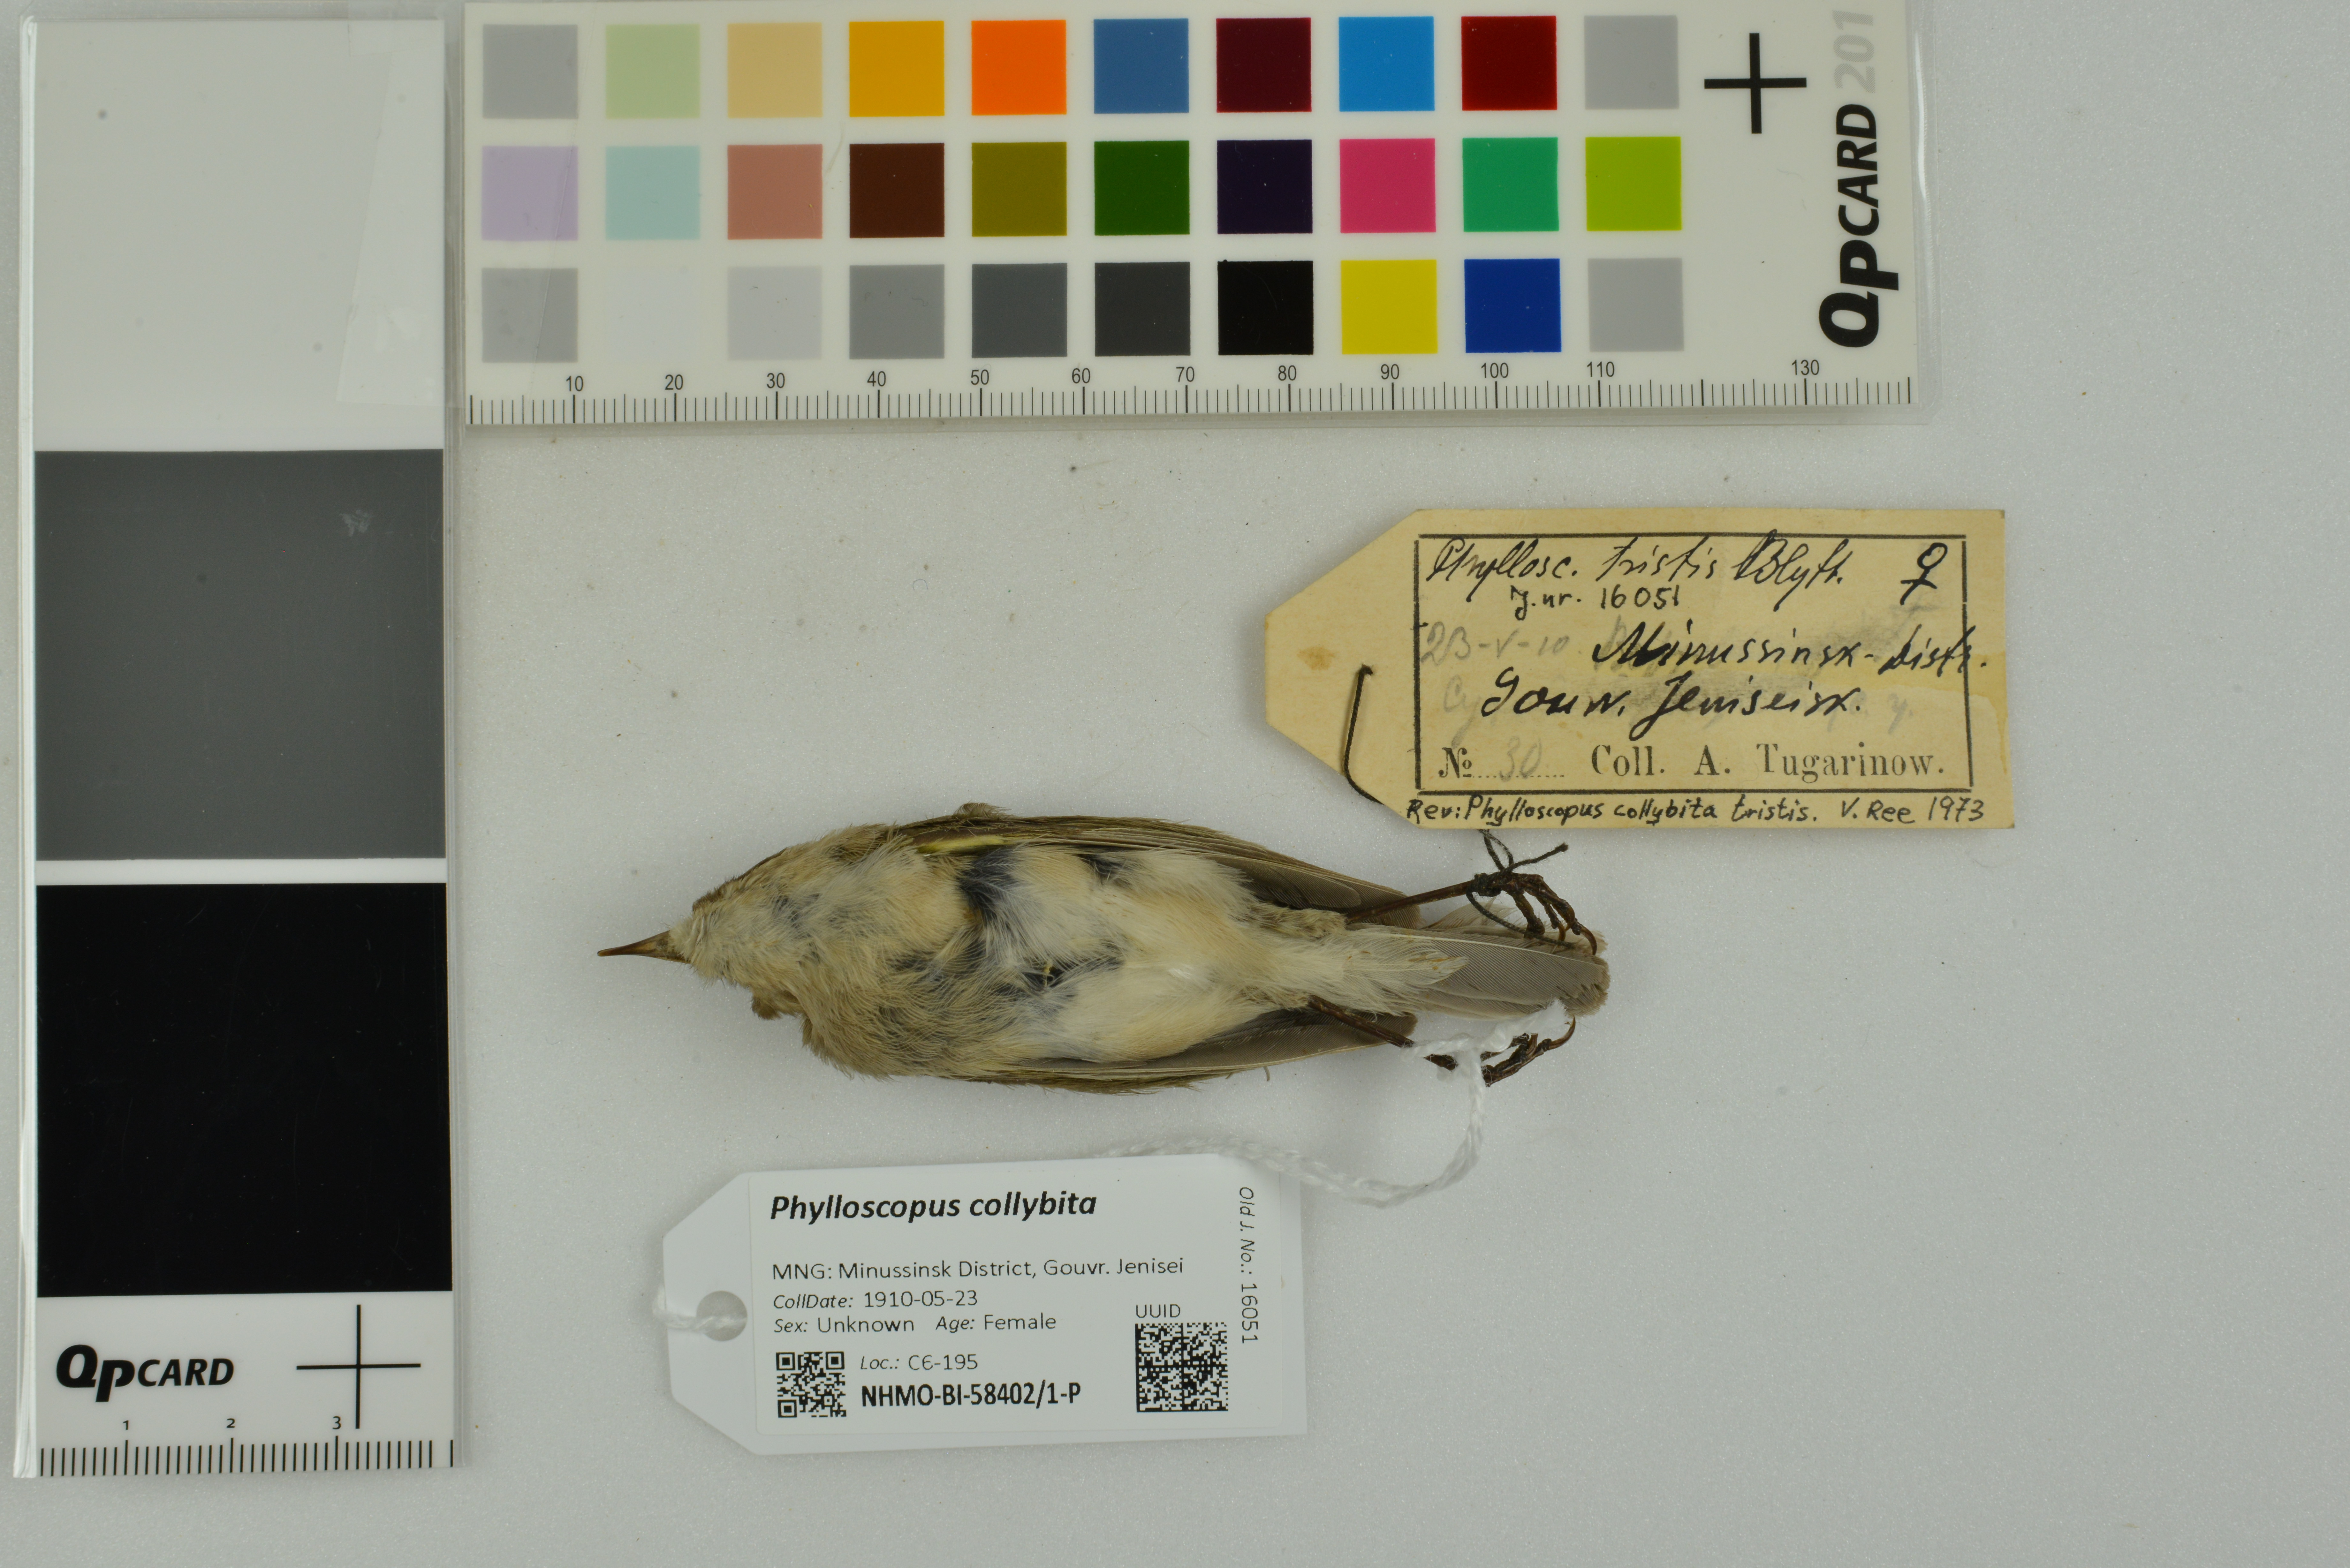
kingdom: Animalia
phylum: Chordata
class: Aves
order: Passeriformes
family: Phylloscopidae
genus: Phylloscopus
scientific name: Phylloscopus collybita
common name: Common chiffchaff
